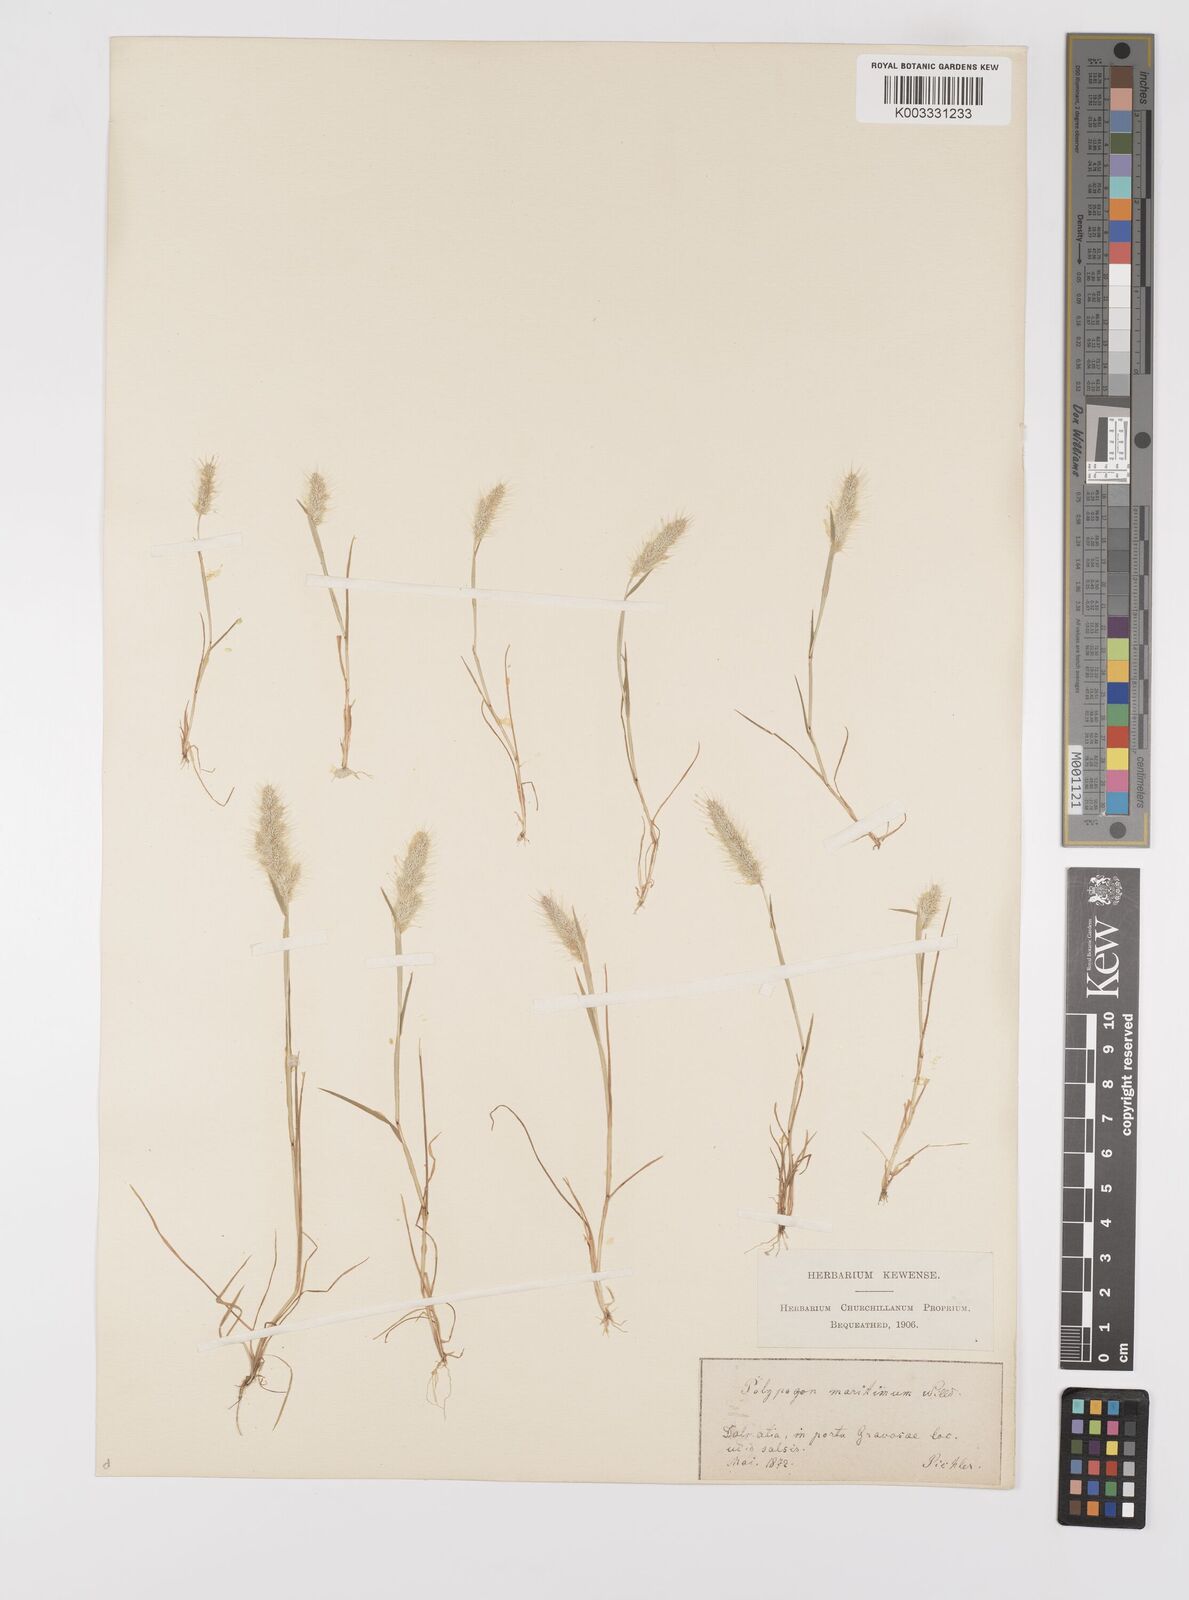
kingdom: Plantae
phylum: Tracheophyta
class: Liliopsida
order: Poales
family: Poaceae
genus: Polypogon
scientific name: Polypogon maritimus
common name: Mediterranean rabbitsfoot grass
